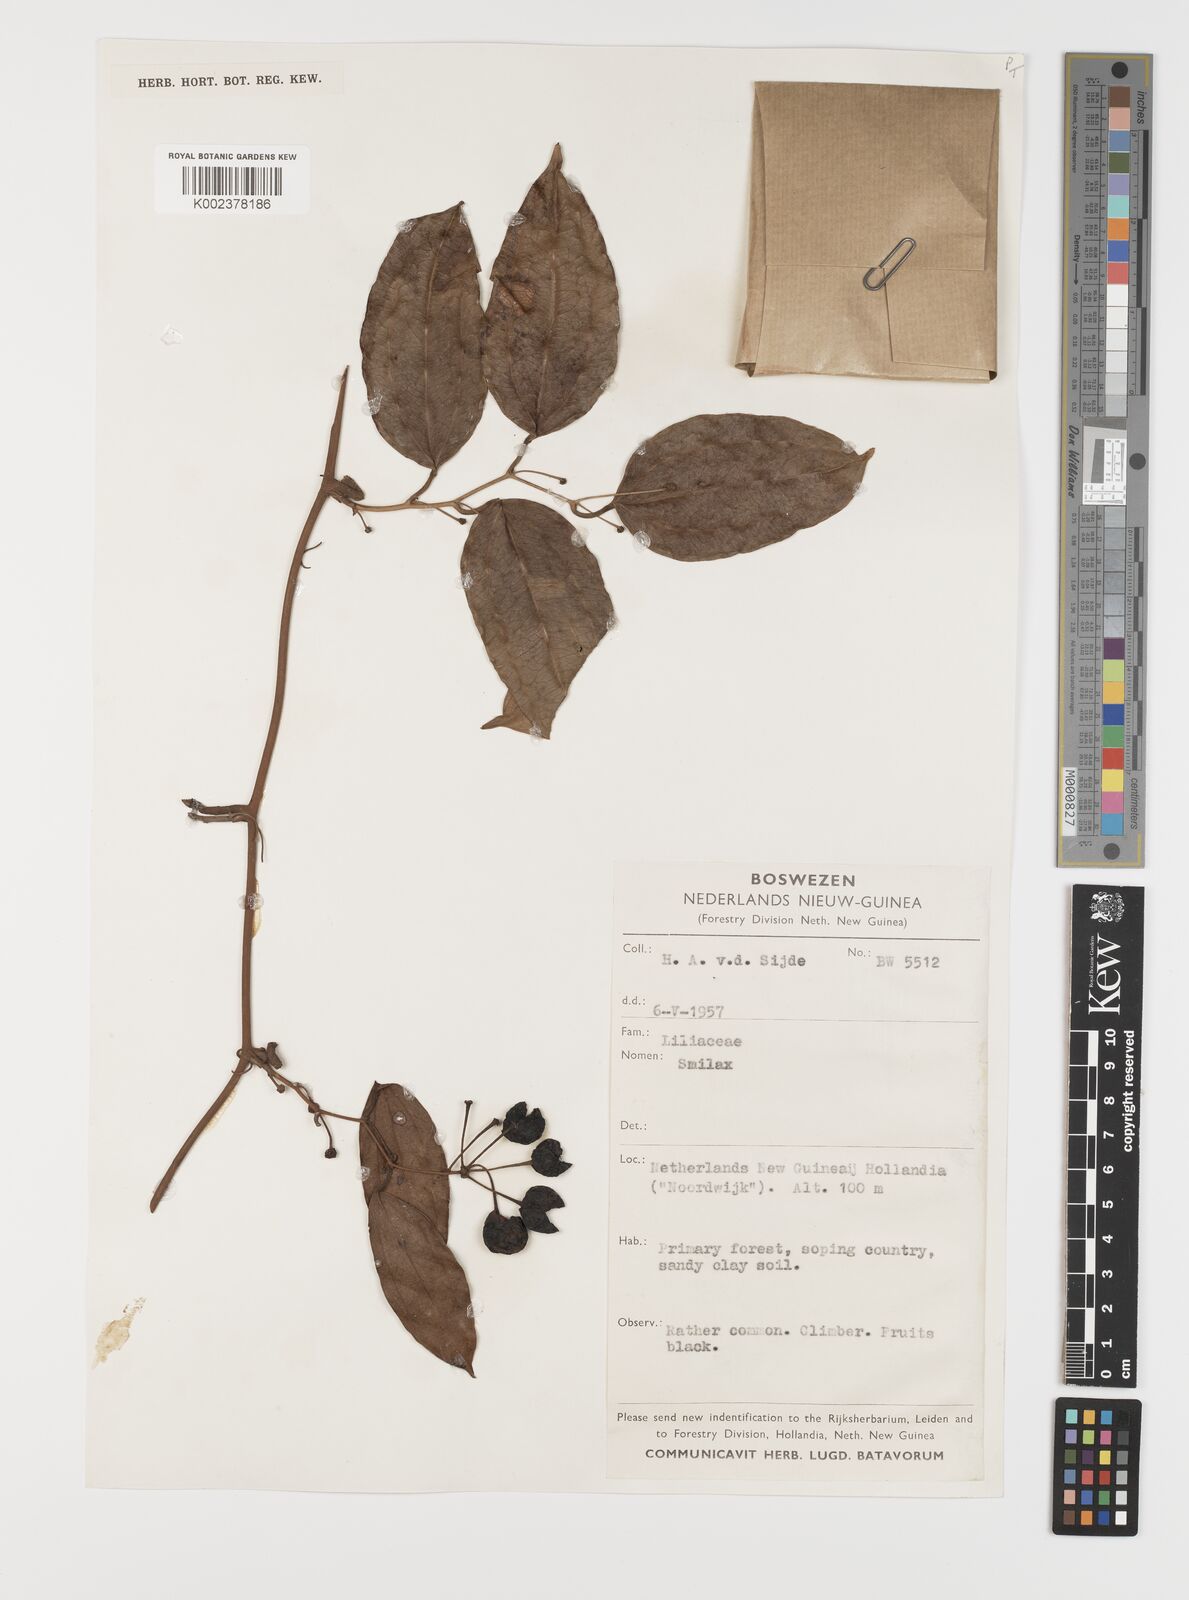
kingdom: Plantae
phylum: Tracheophyta
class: Liliopsida
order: Liliales
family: Smilacaceae
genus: Smilax
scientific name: Smilax
